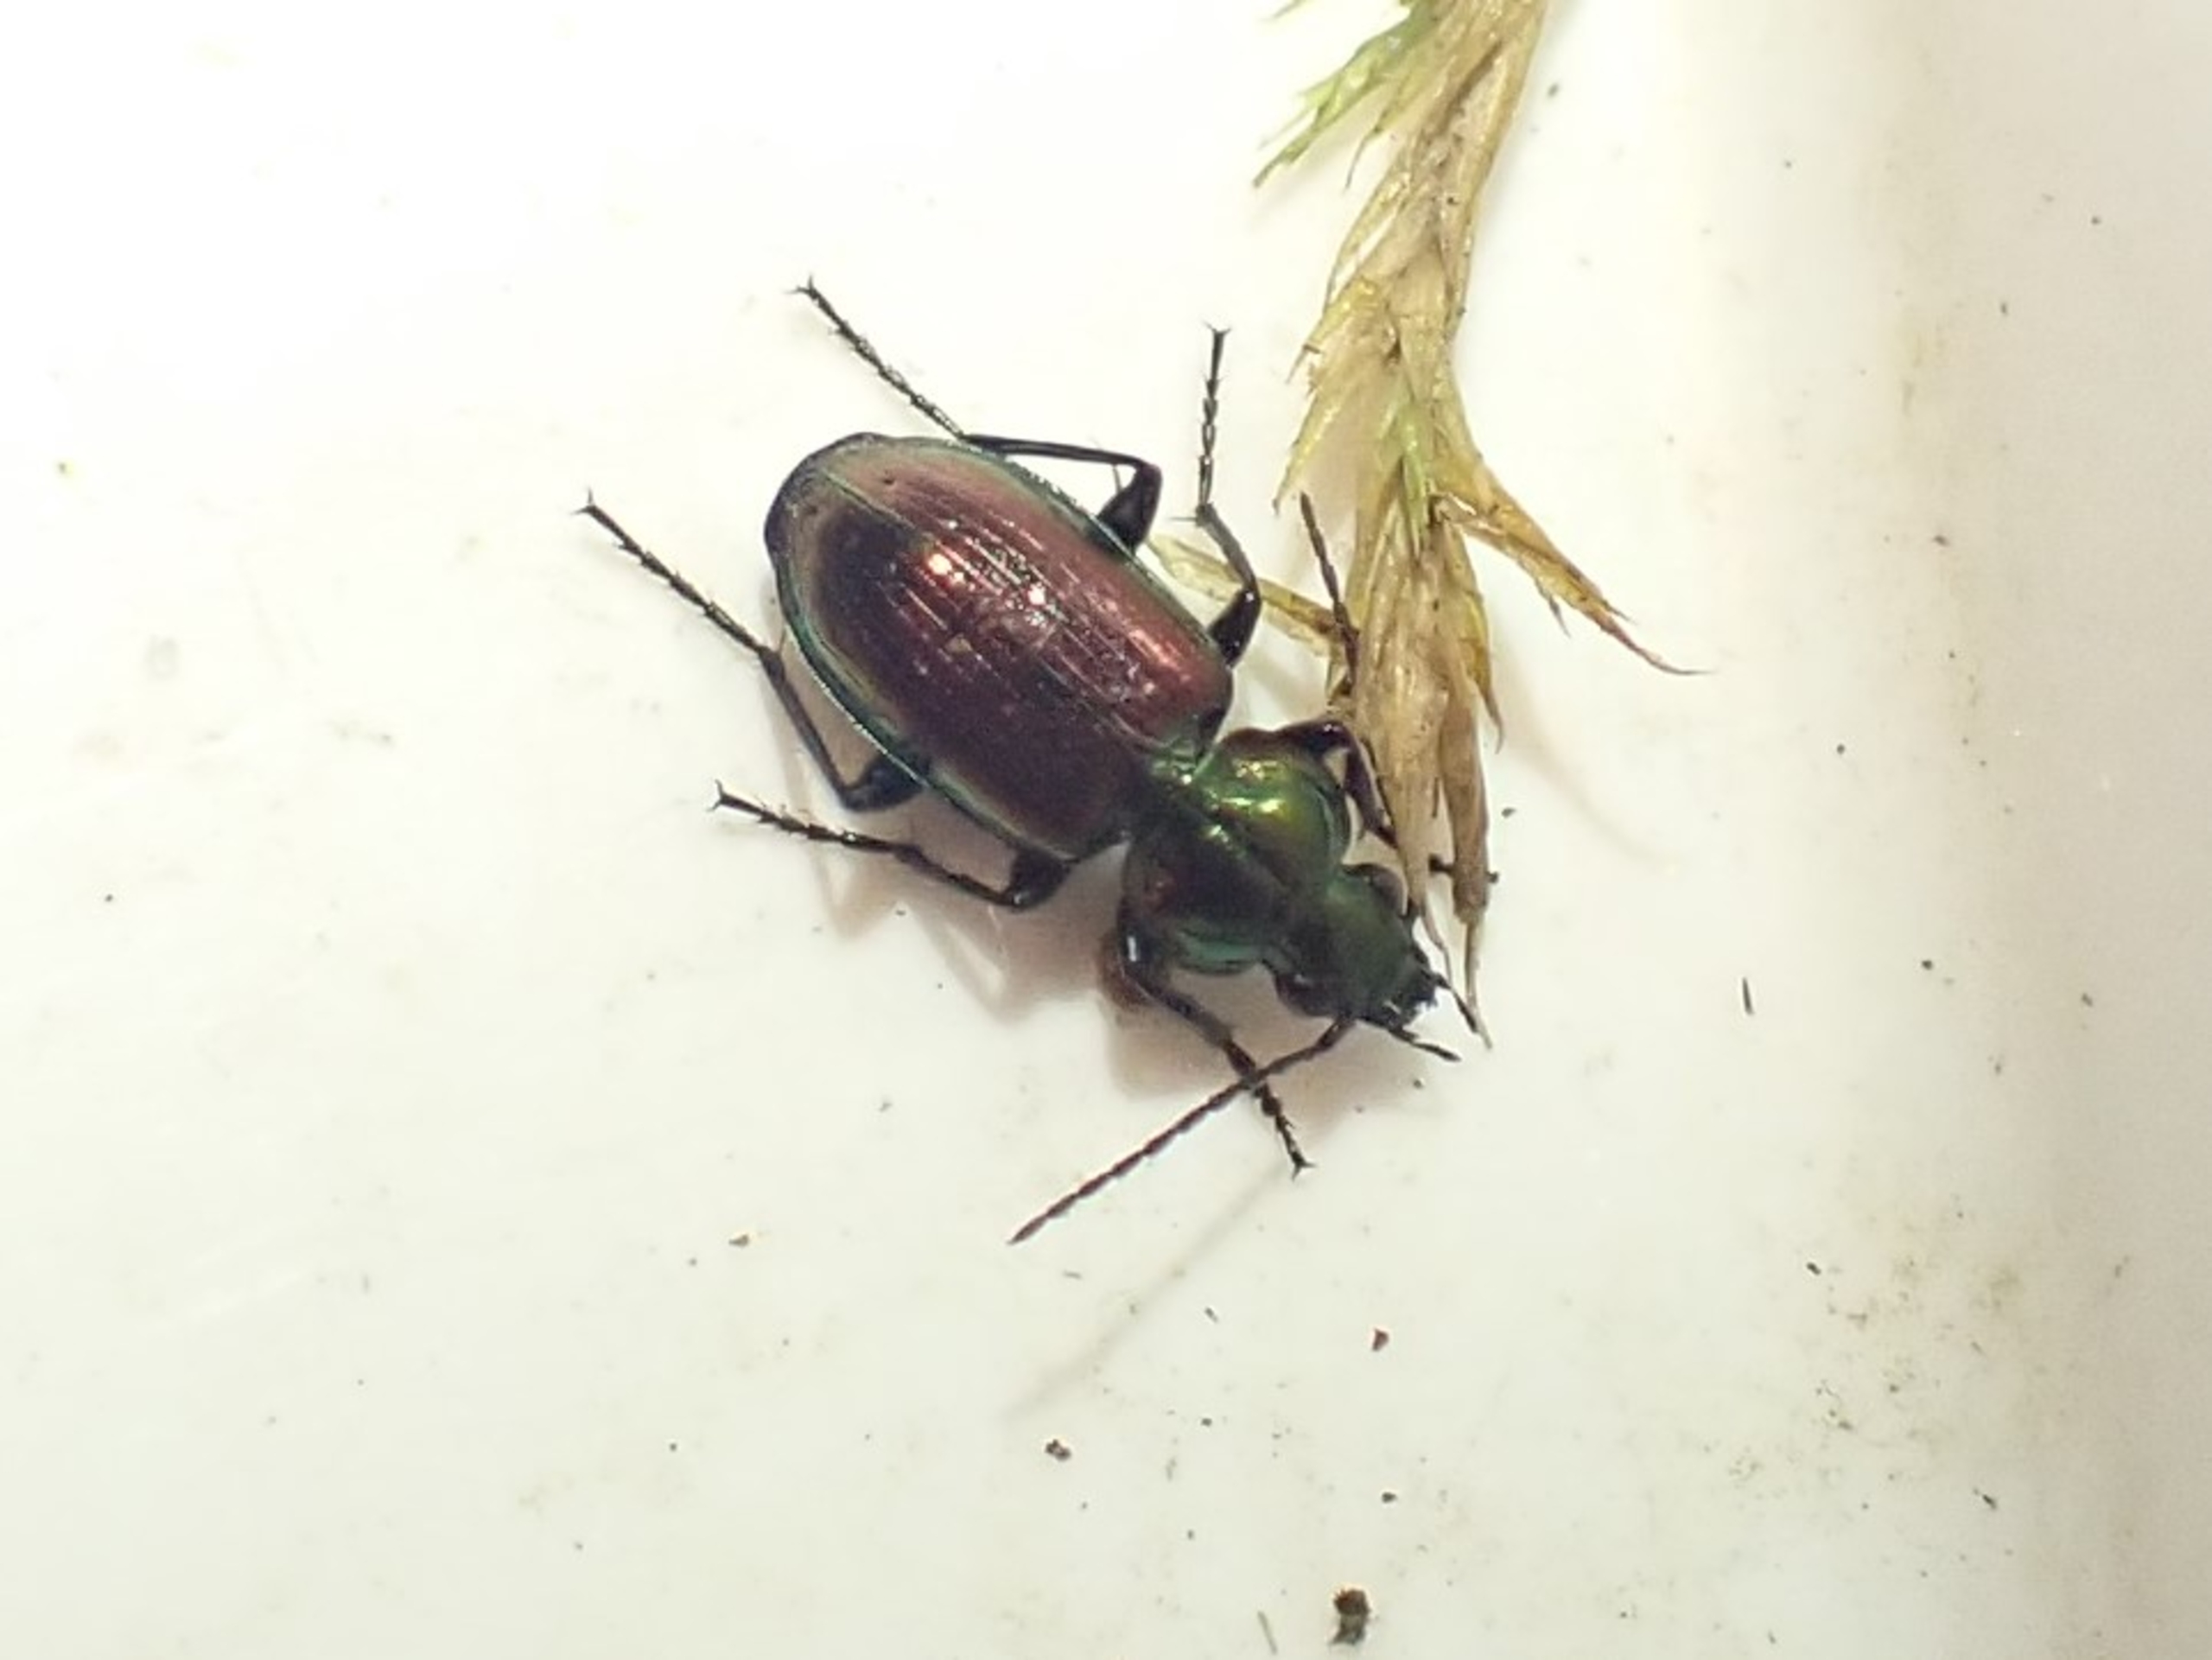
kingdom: Animalia
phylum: Arthropoda
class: Insecta
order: Coleoptera
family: Carabidae
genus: Agonum
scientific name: Agonum sexpunctatum
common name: Sekspunktet kvikløber
